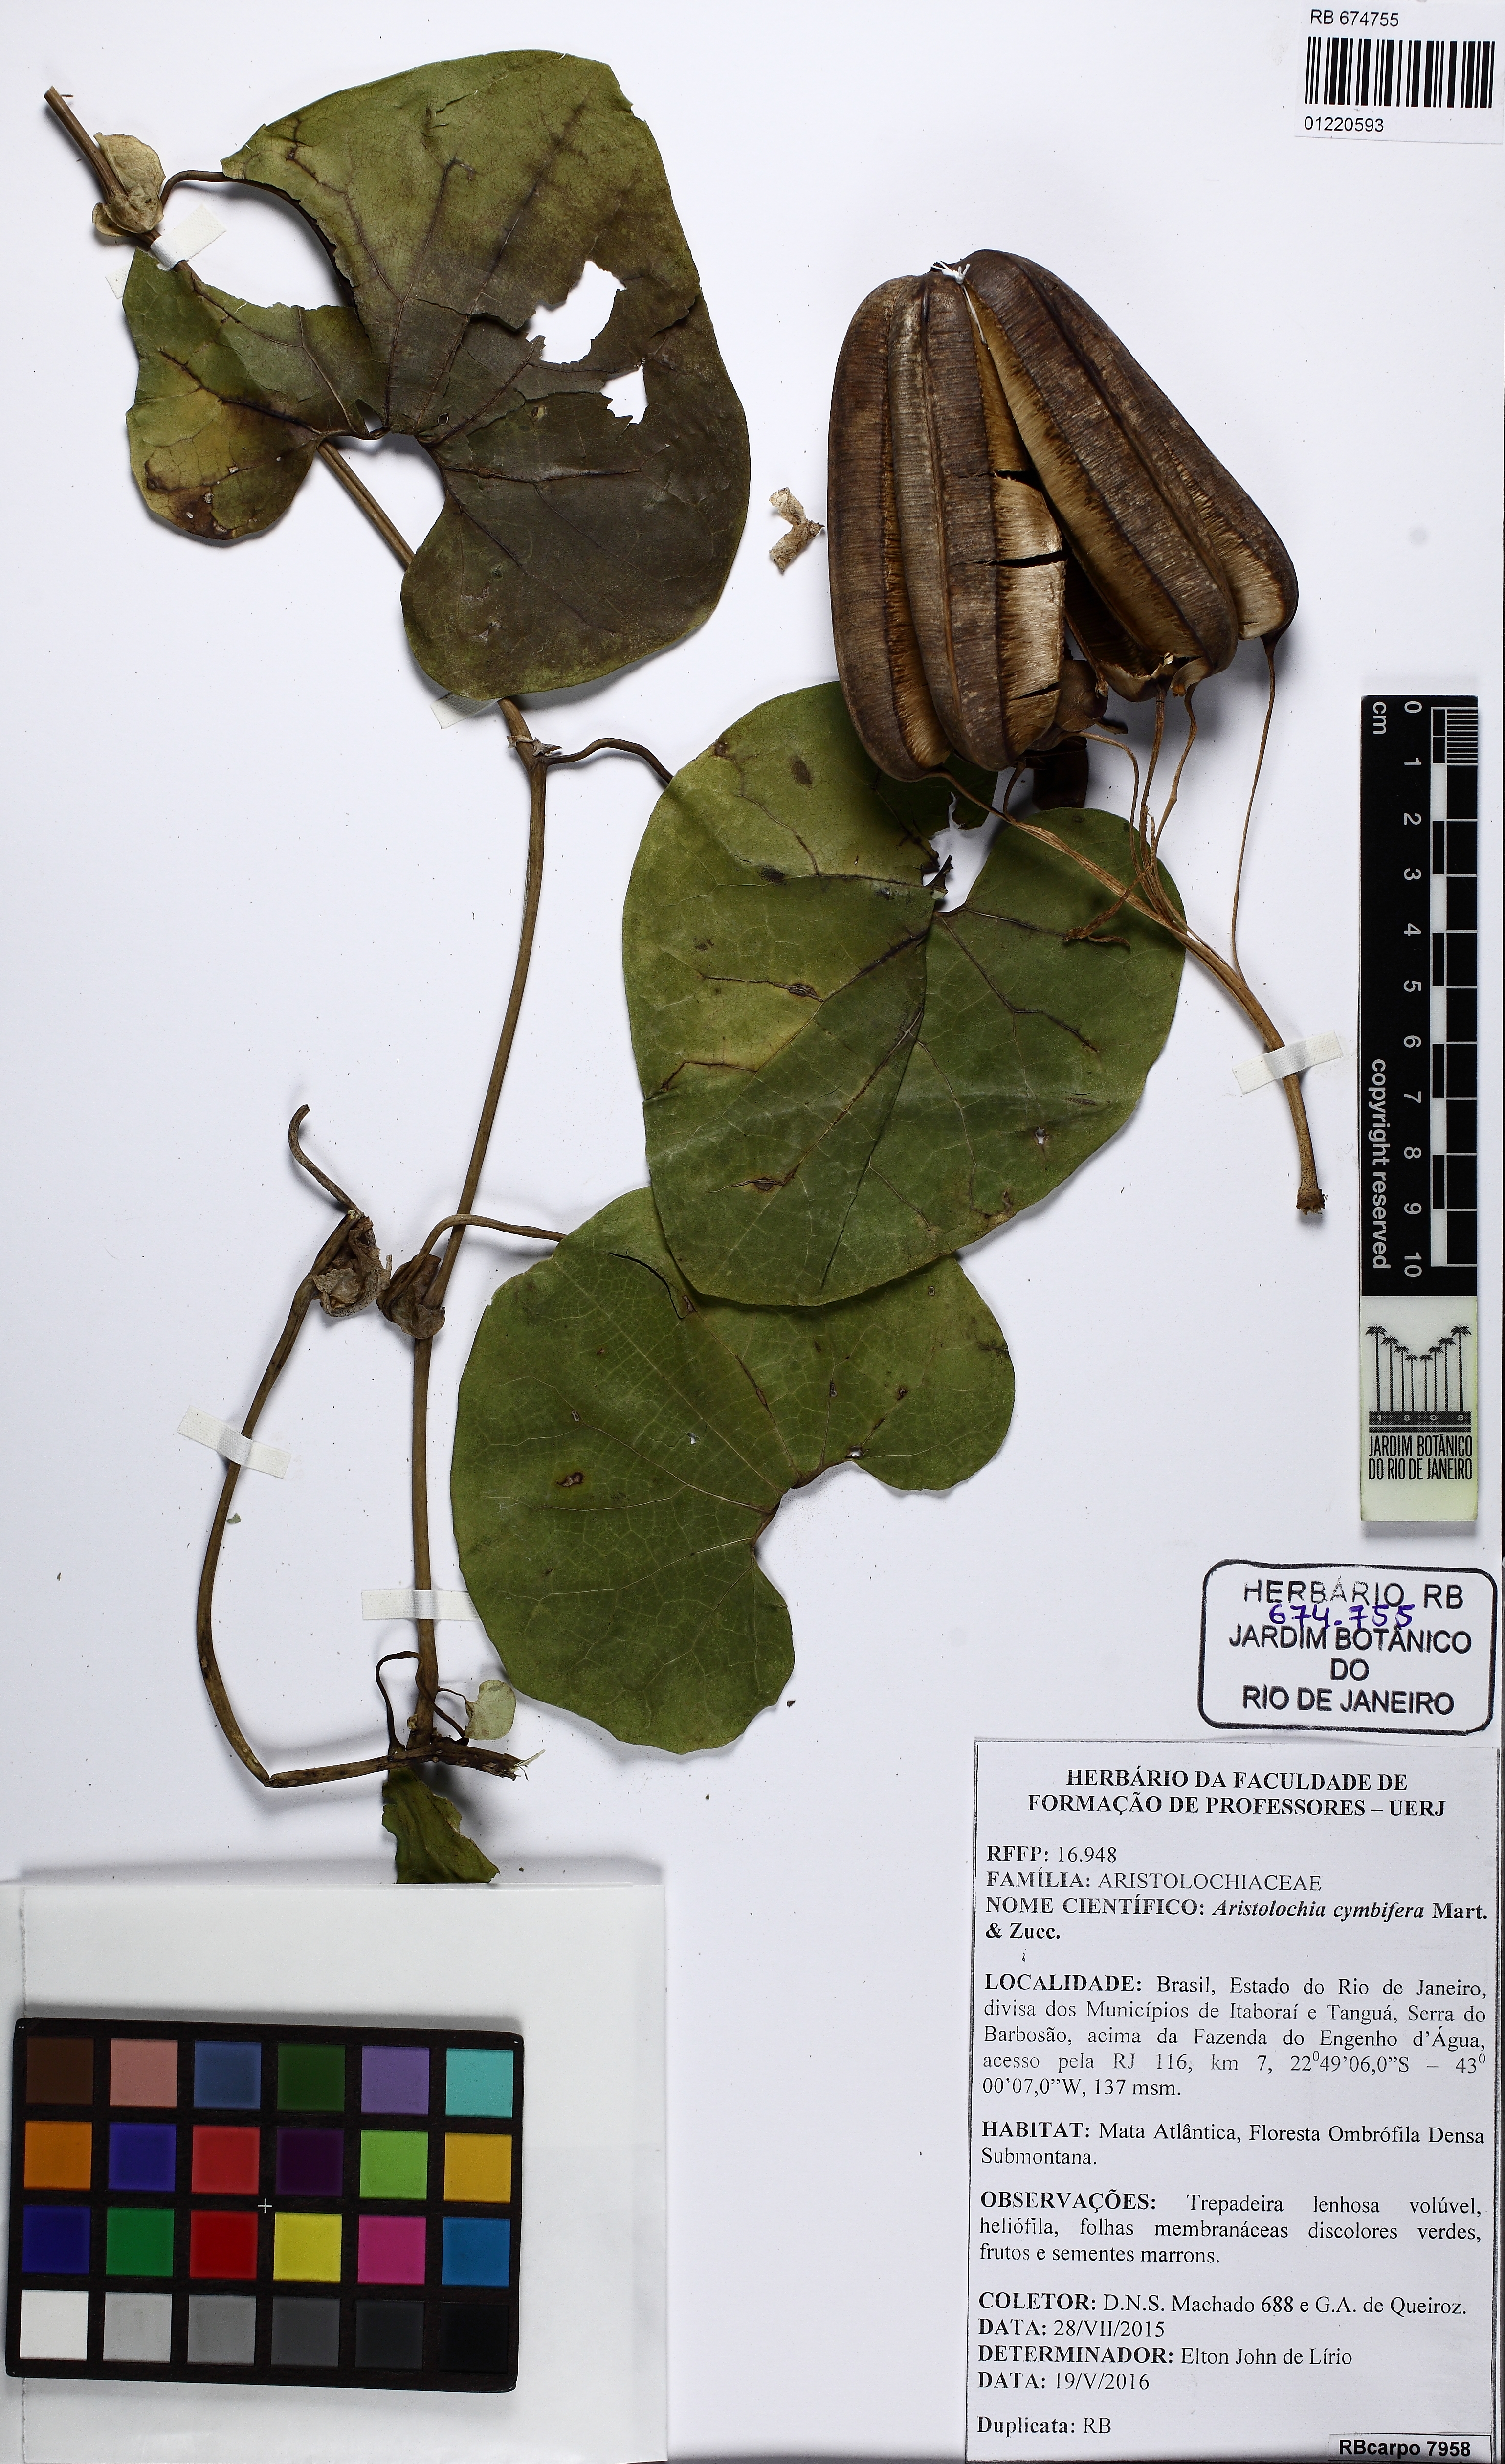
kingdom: Plantae
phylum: Tracheophyta
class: Magnoliopsida
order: Piperales
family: Aristolochiaceae
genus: Aristolochia
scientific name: Aristolochia cymbifera
